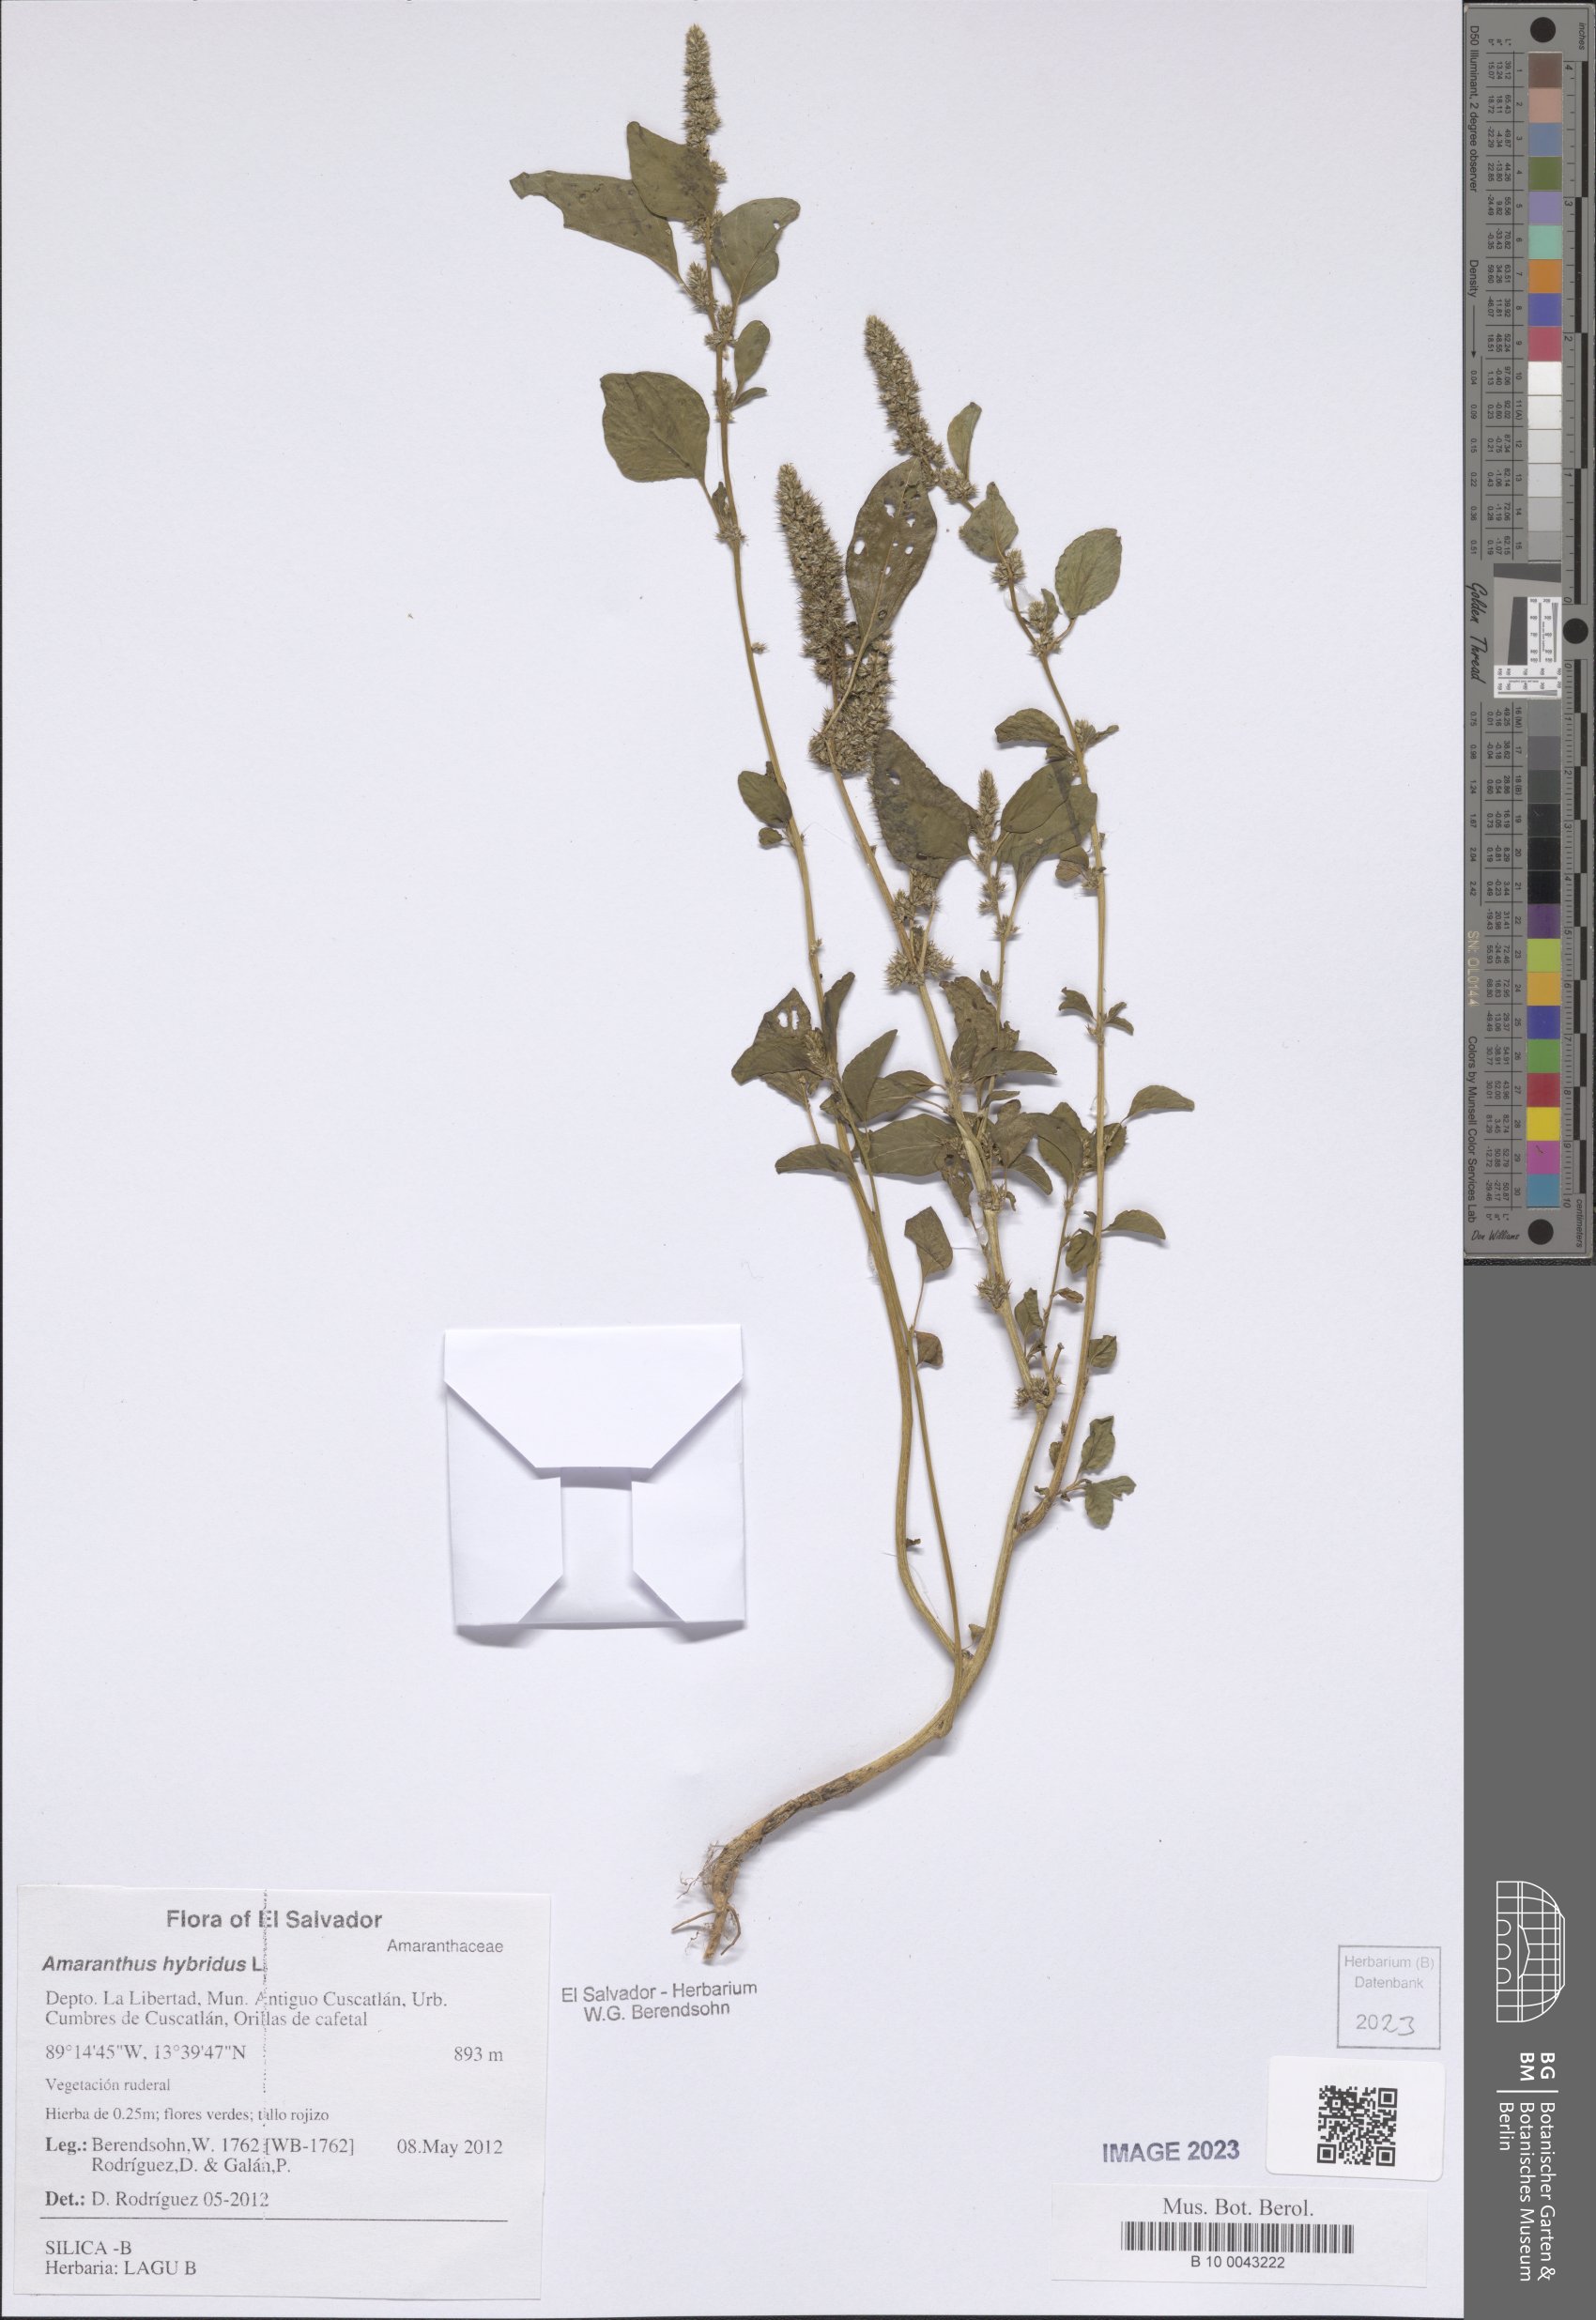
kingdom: Plantae
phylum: Tracheophyta
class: Magnoliopsida
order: Caryophyllales
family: Amaranthaceae
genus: Amaranthus
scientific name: Amaranthus hybridus
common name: Green amaranth
